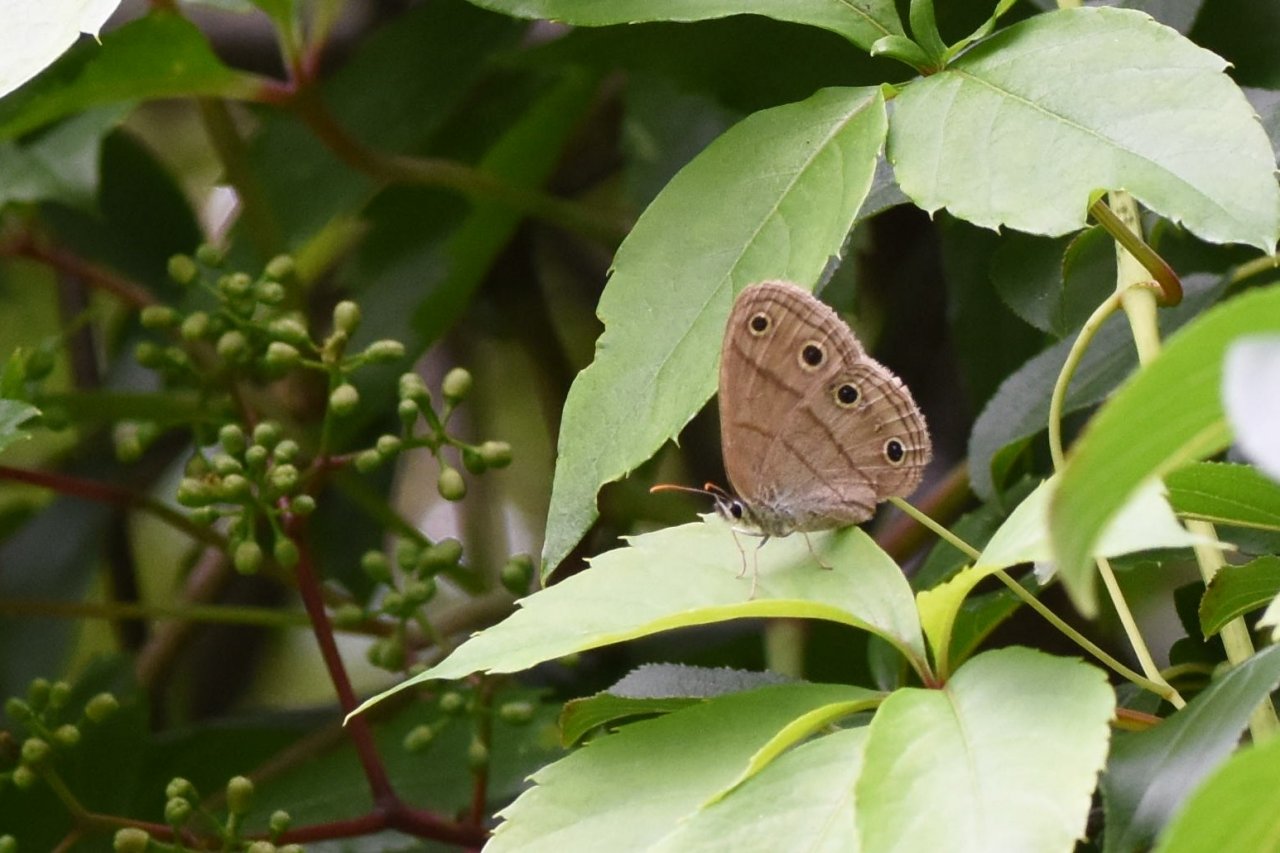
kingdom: Animalia
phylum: Arthropoda
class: Insecta
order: Lepidoptera
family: Nymphalidae
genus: Euptychia
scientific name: Euptychia cymela
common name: Little Wood Satyr
